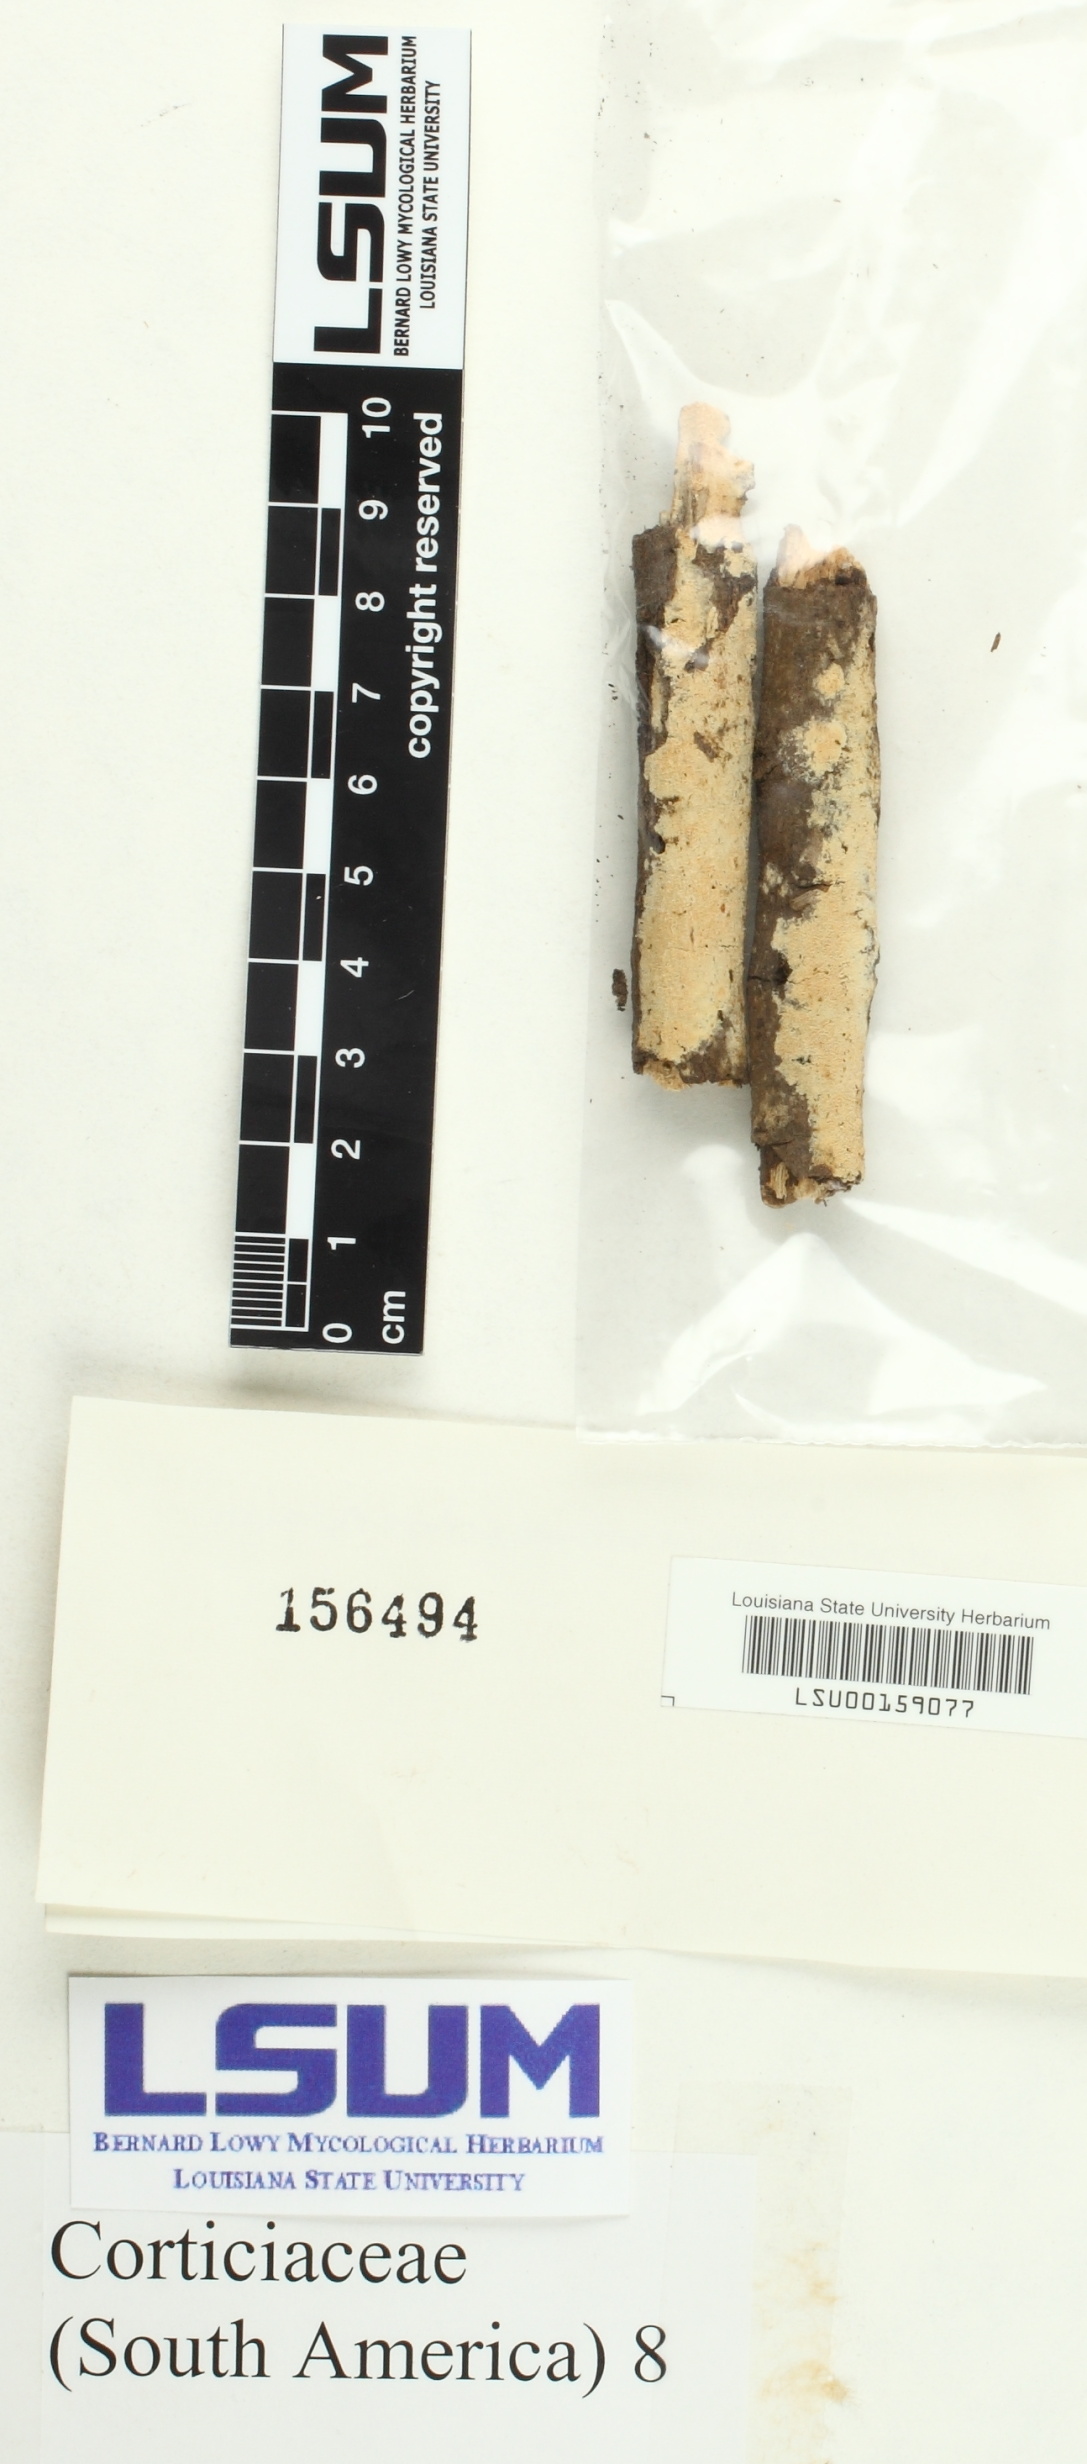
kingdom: Fungi
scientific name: Fungi
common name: Fungi
